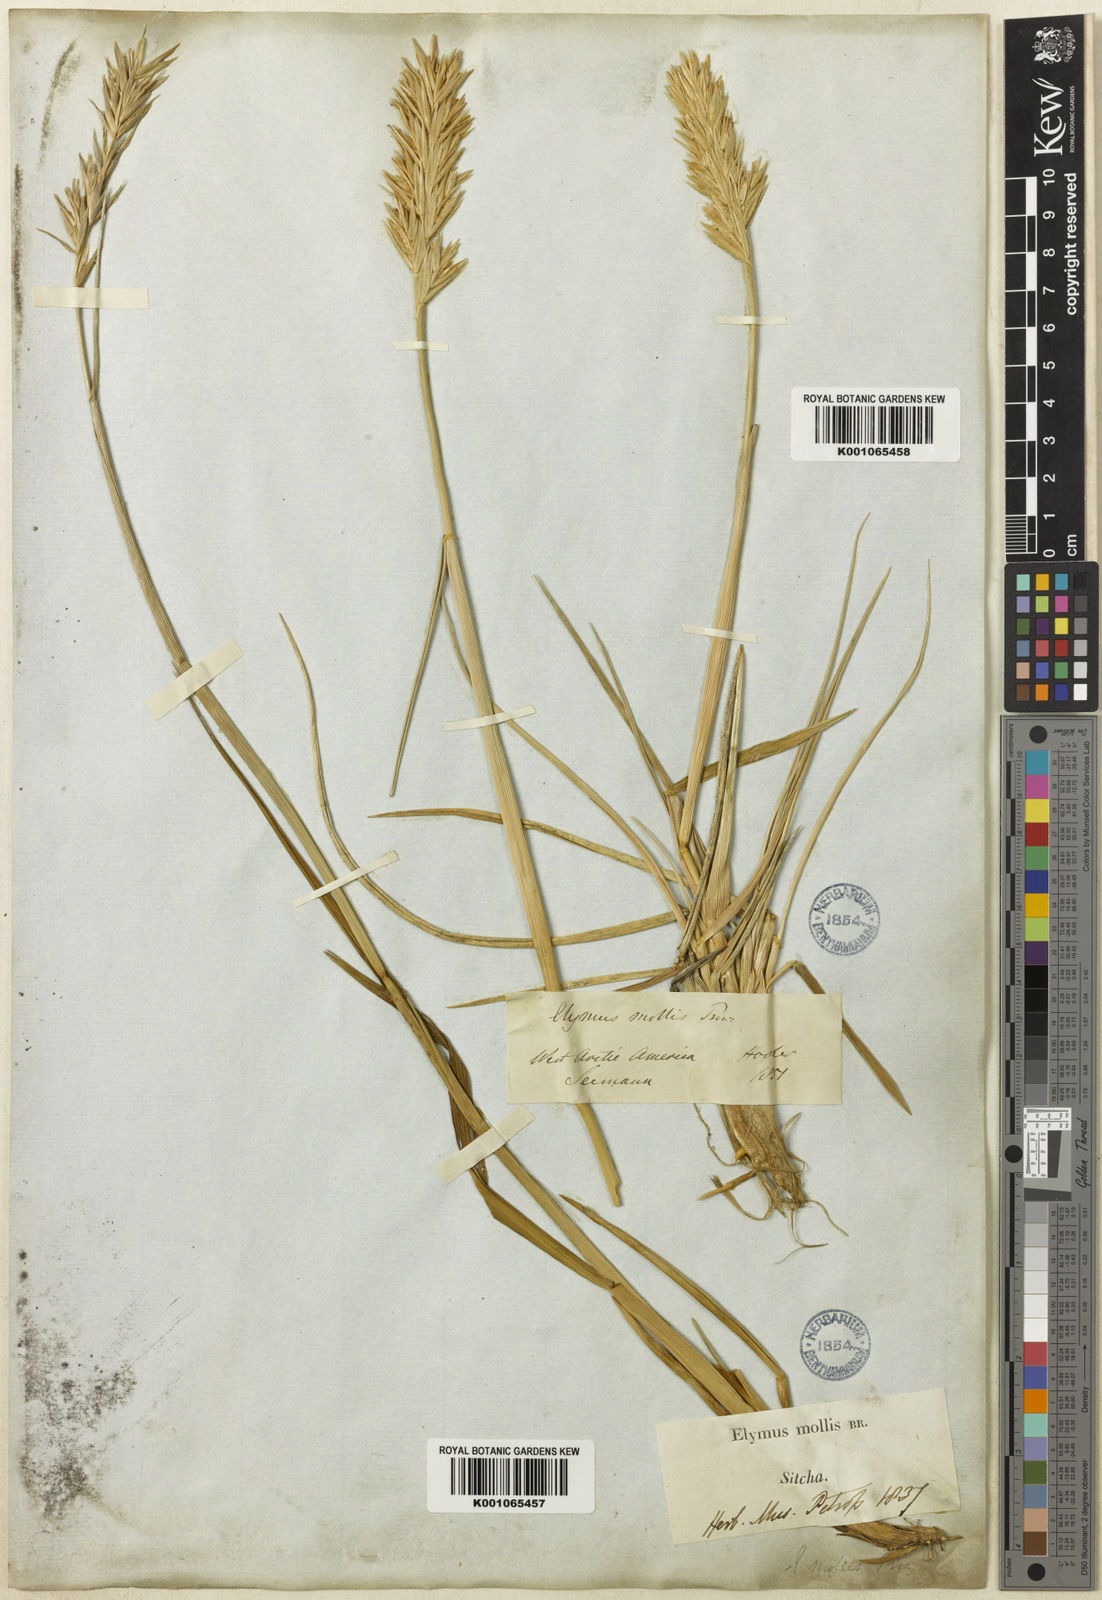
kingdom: Plantae
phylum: Tracheophyta
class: Liliopsida
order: Poales
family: Poaceae
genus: Leymus
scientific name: Leymus mollis
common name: American dune grass
